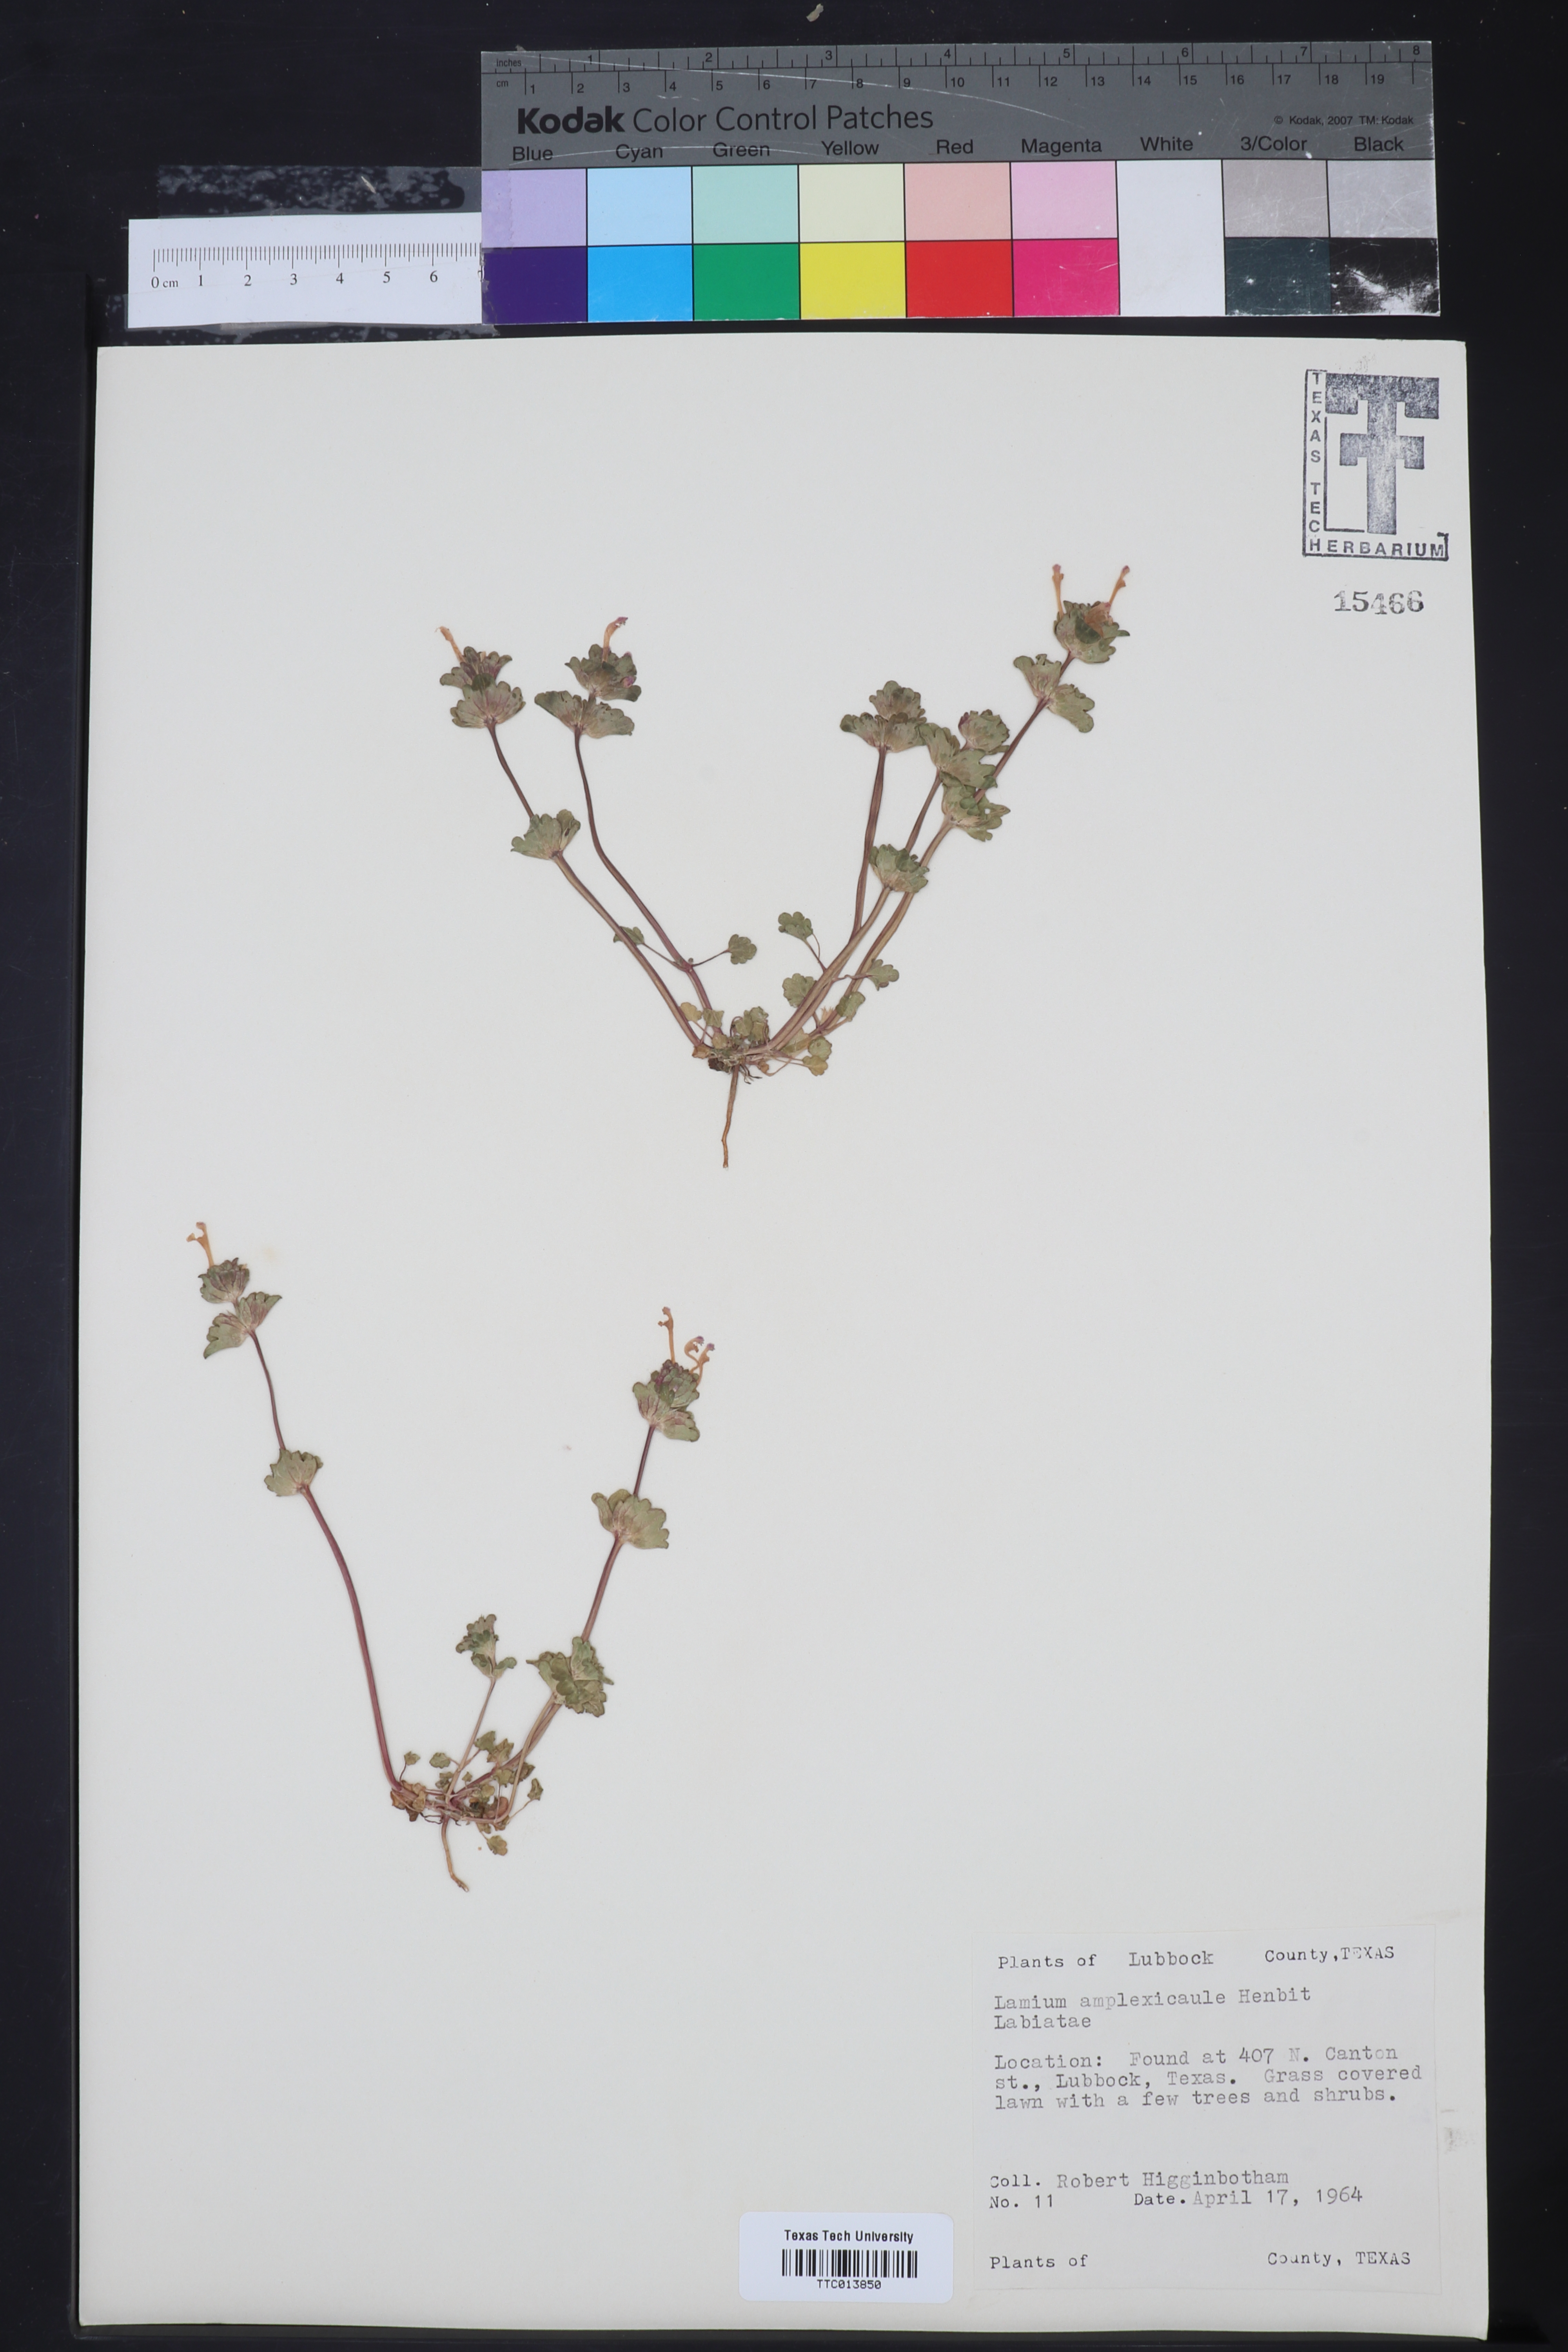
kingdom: Plantae
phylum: Tracheophyta
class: Magnoliopsida
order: Lamiales
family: Lamiaceae
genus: Lamium
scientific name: Lamium amplexicaule
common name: Henbit dead-nettle
